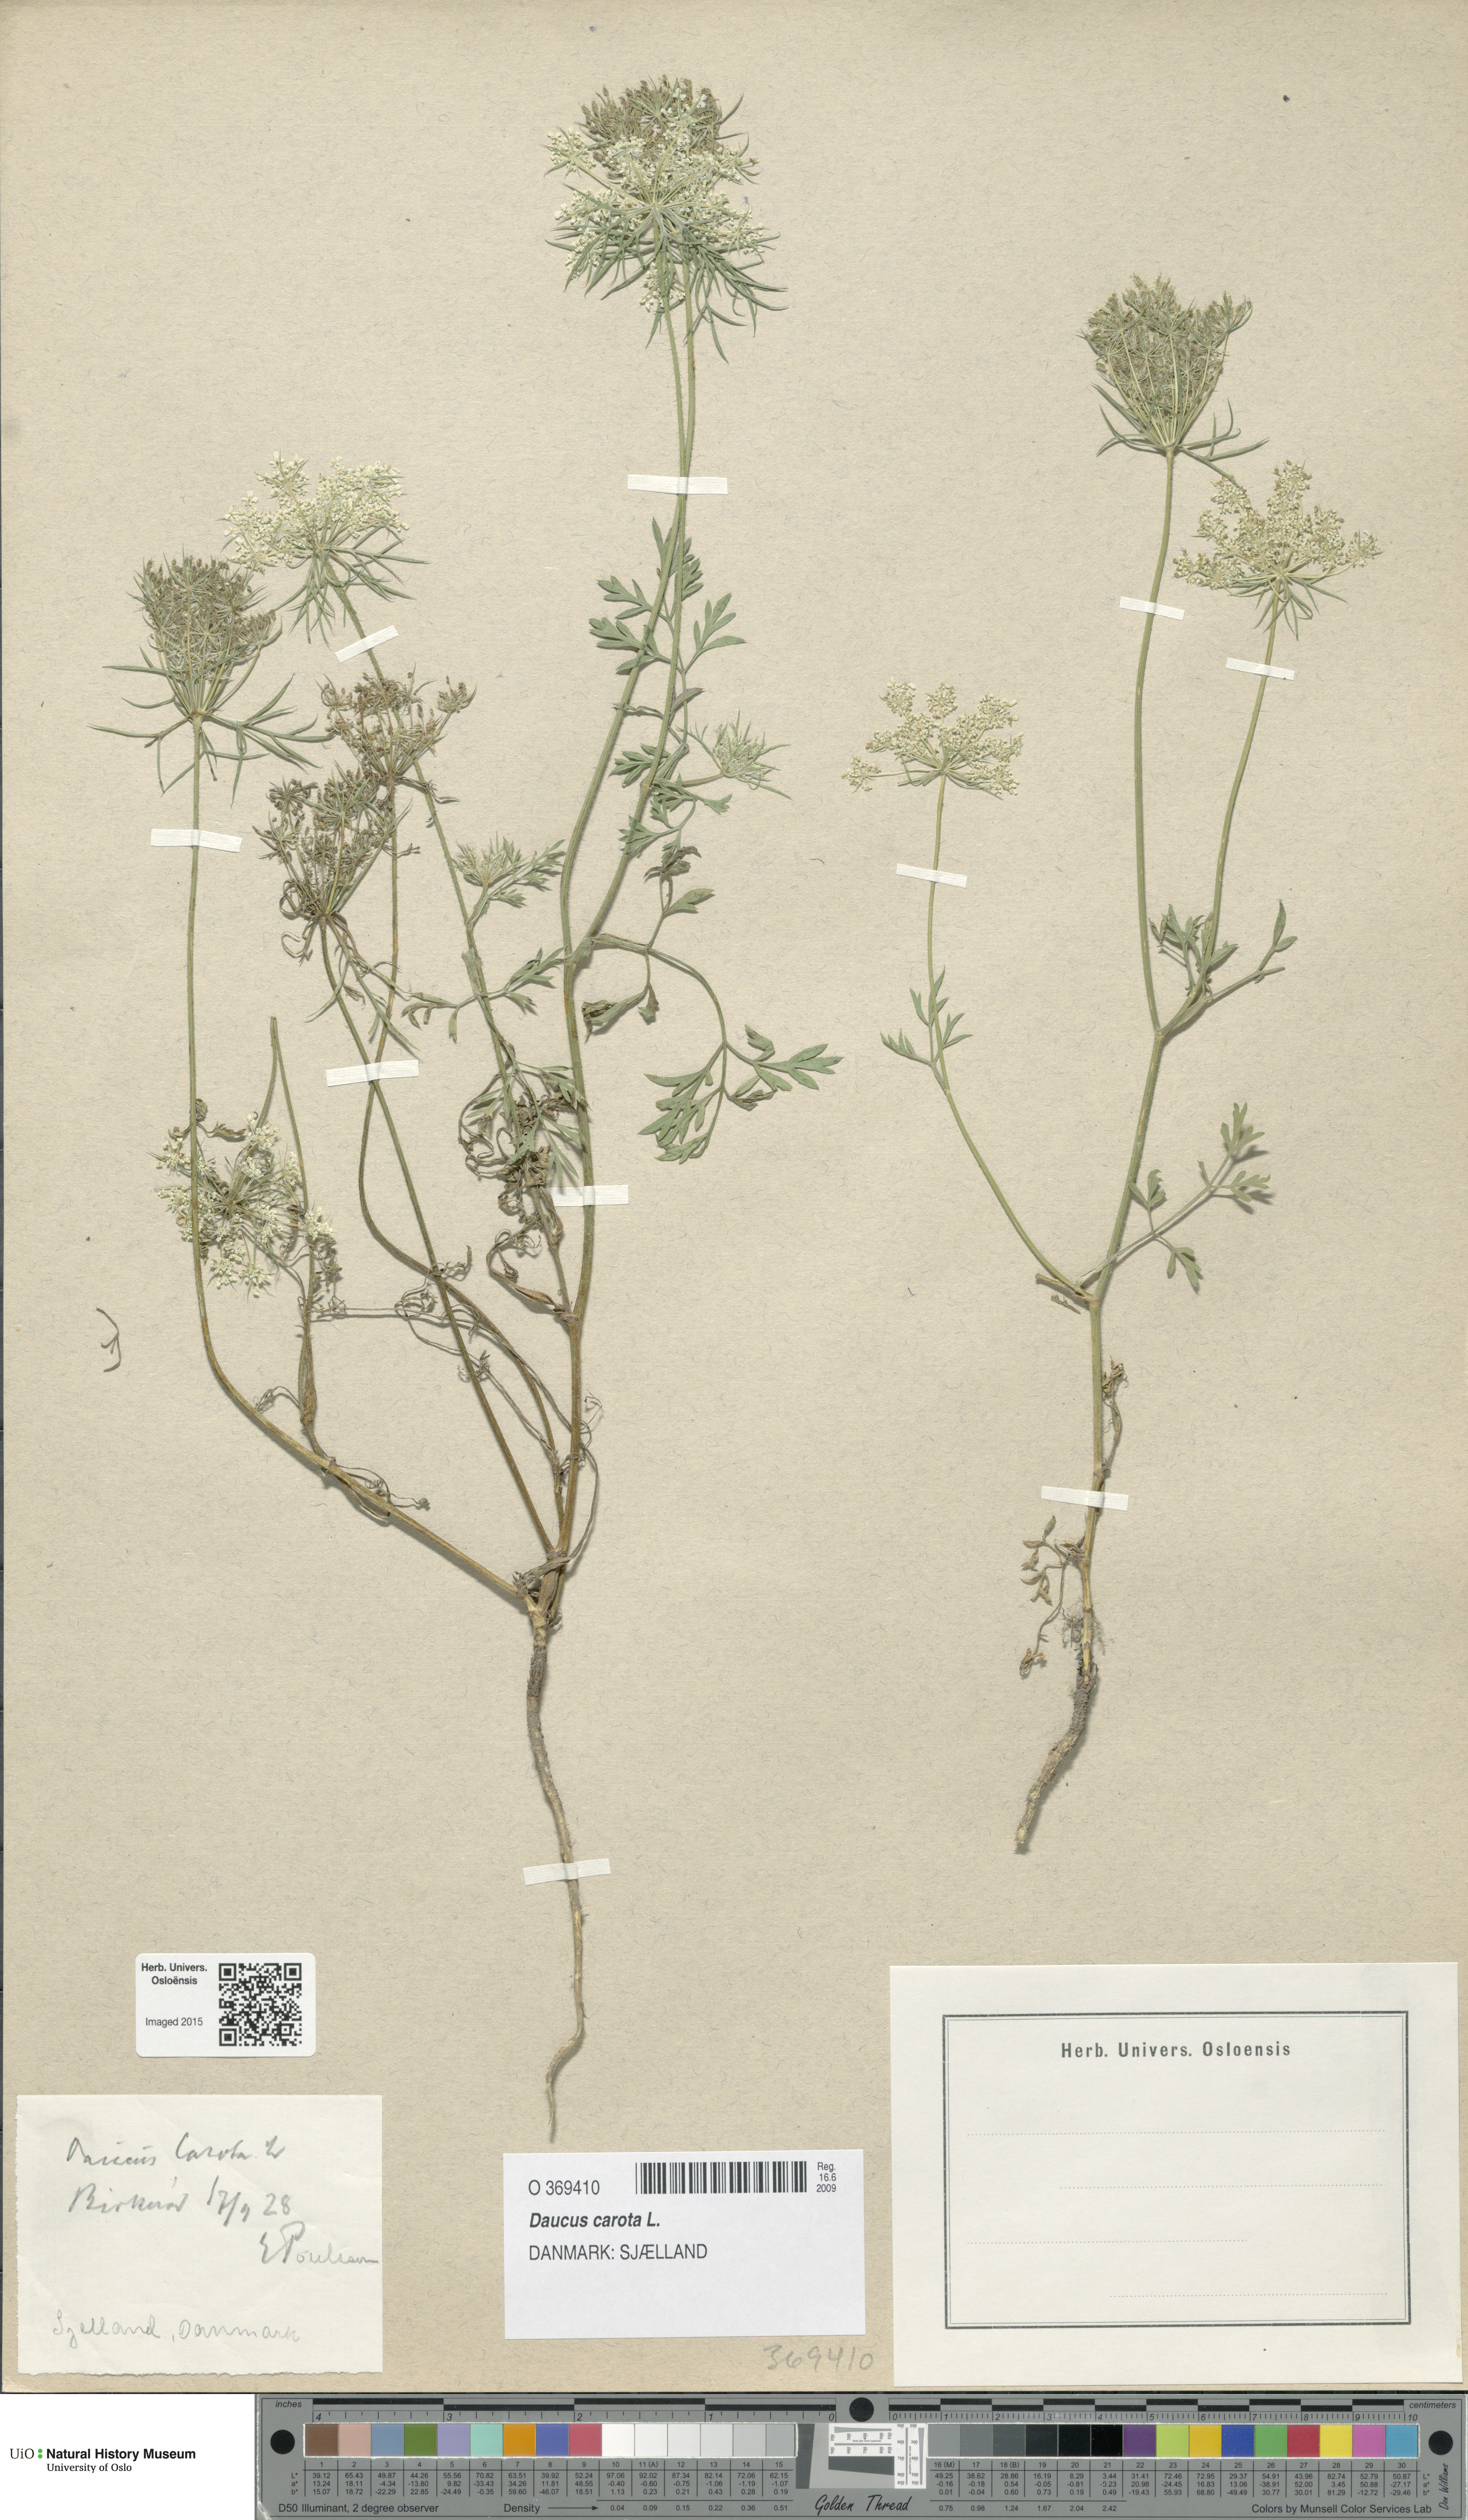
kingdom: Plantae
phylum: Tracheophyta
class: Magnoliopsida
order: Apiales
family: Apiaceae
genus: Daucus
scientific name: Daucus carota
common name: Wild carrot
